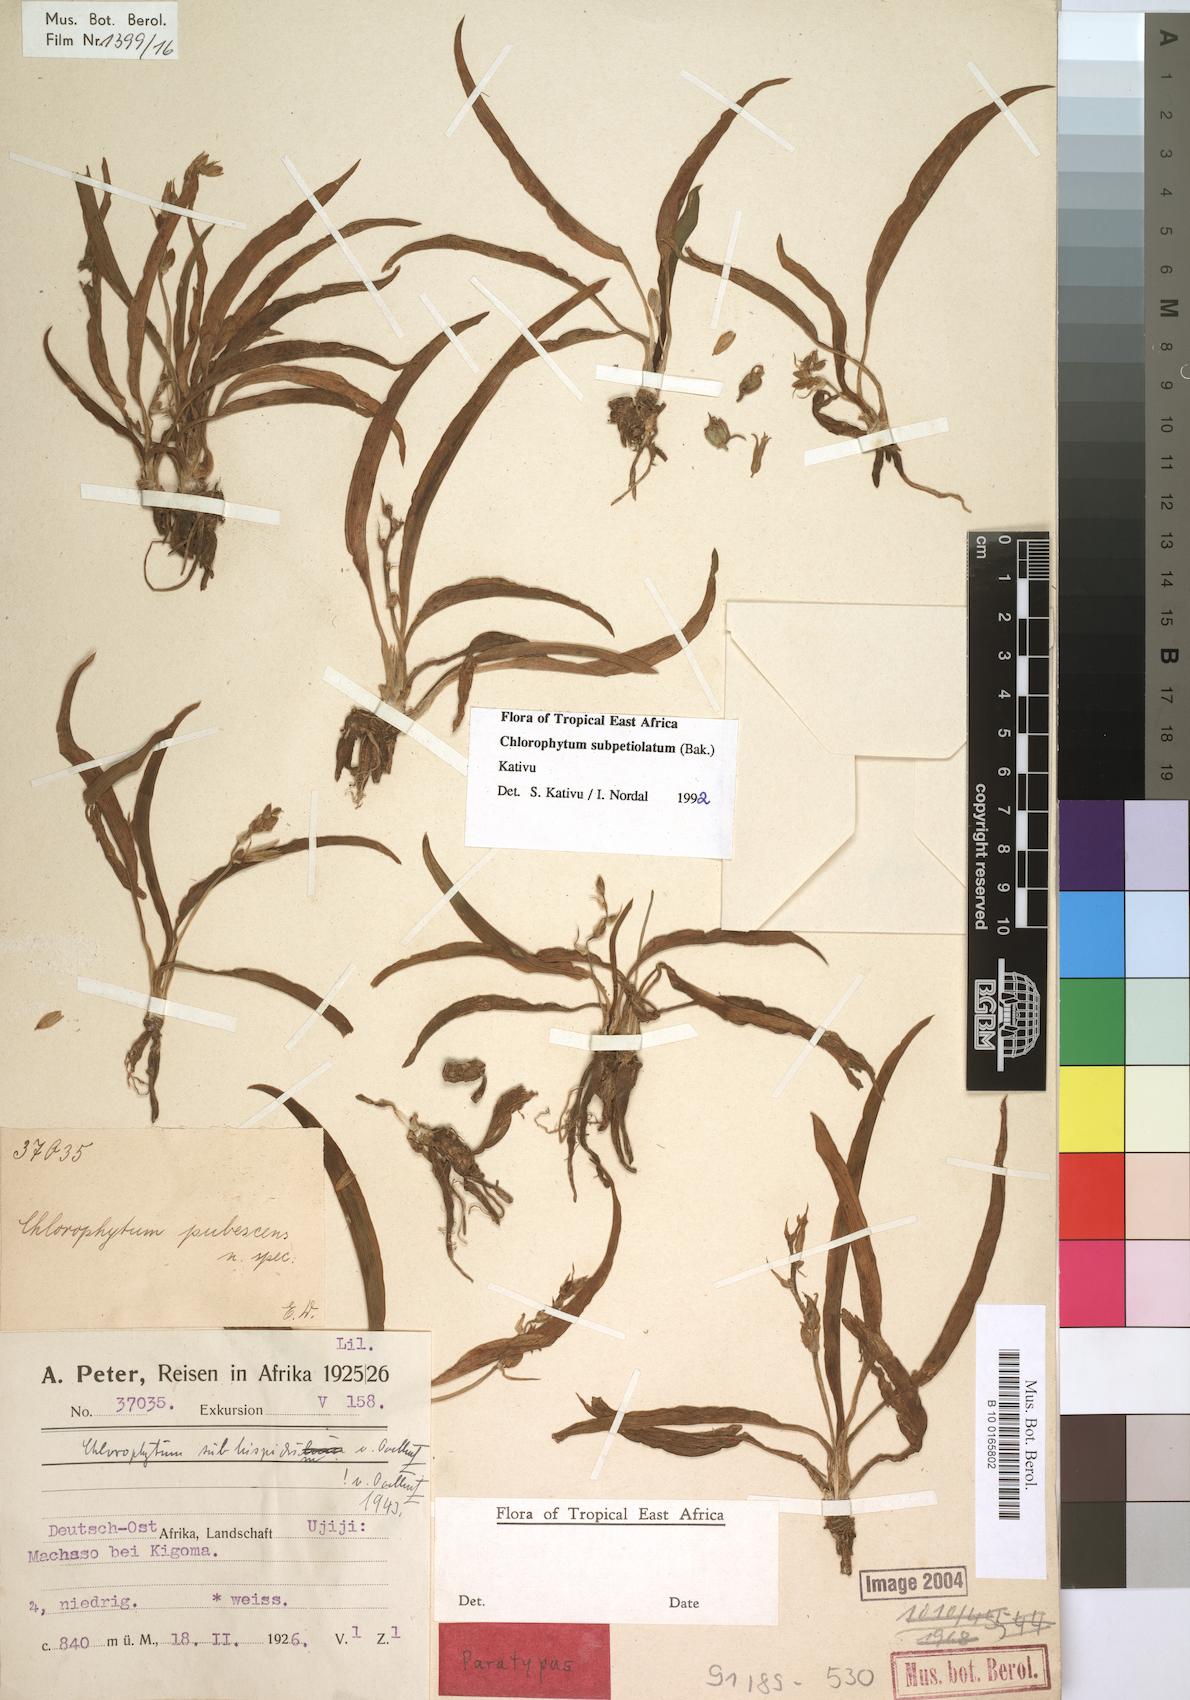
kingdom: Plantae
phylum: Tracheophyta
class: Liliopsida
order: Asparagales
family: Asparagaceae
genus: Chlorophytum
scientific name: Chlorophytum subpetiolatum
